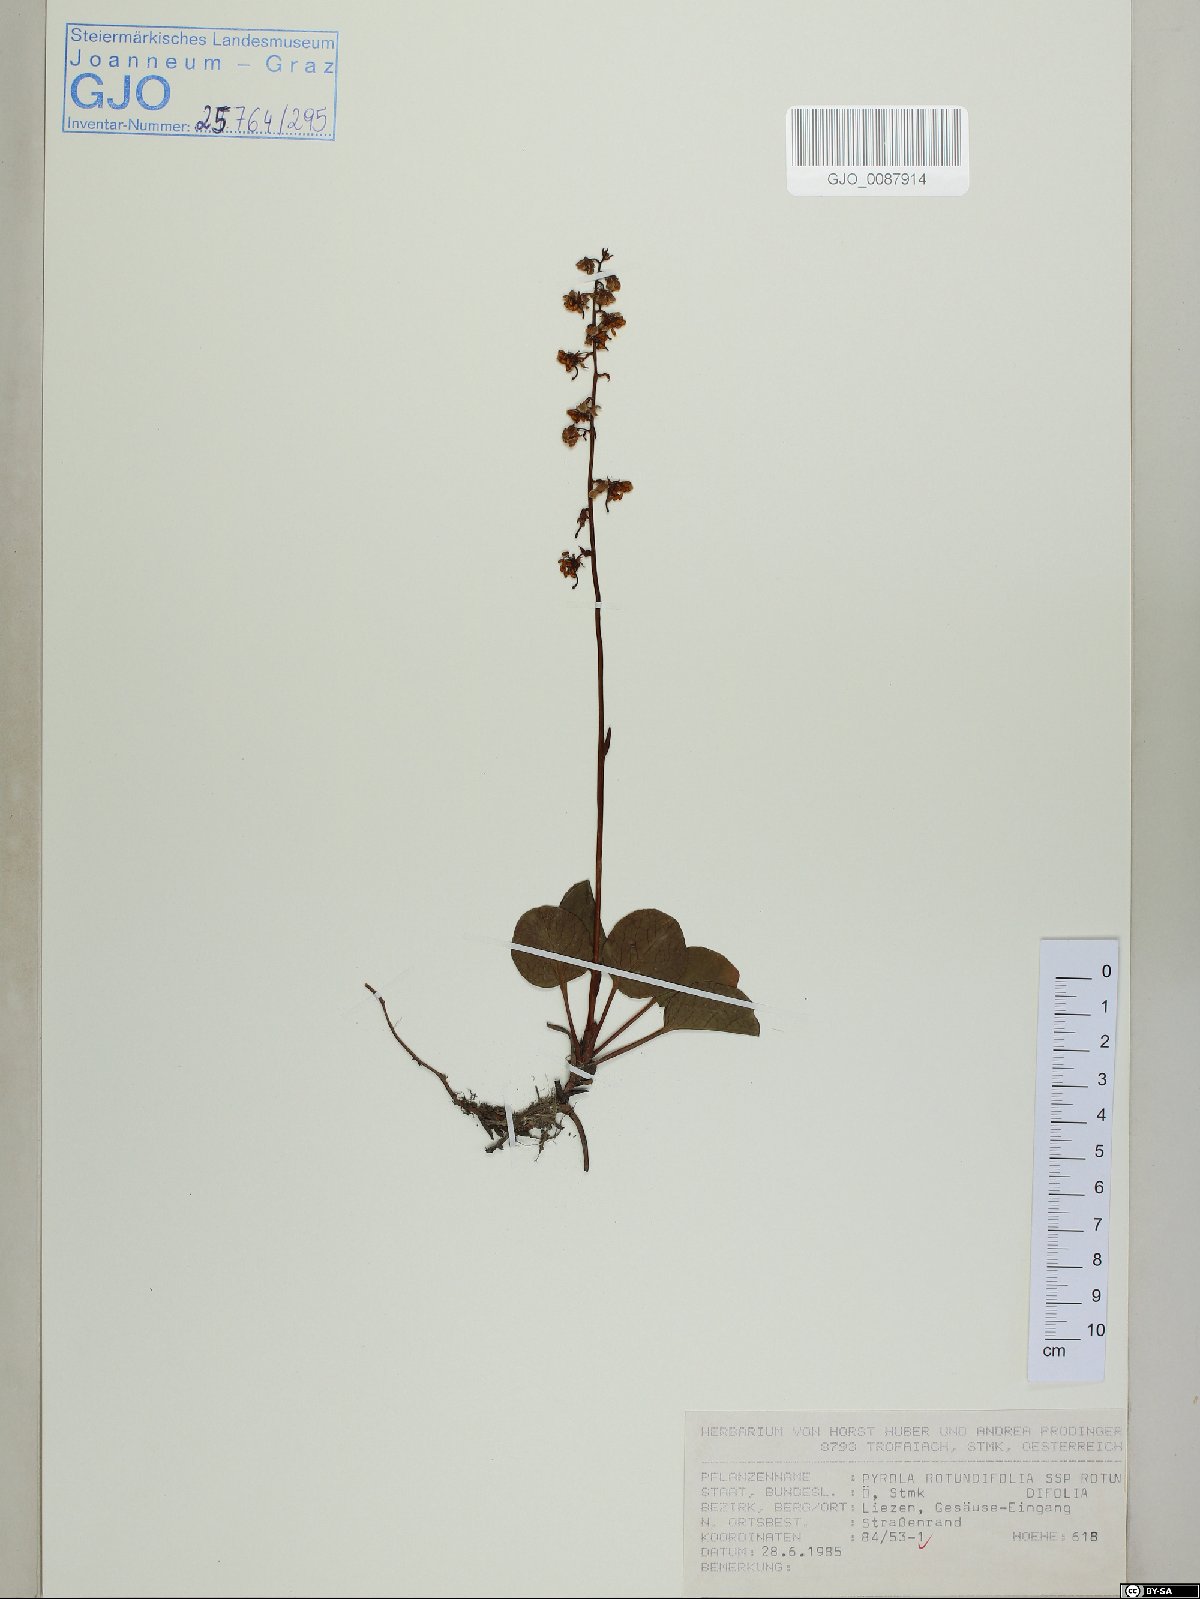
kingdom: Plantae
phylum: Tracheophyta
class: Magnoliopsida
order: Ericales
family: Ericaceae
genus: Pyrola
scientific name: Pyrola rotundifolia
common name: Round-leaved wintergreen
